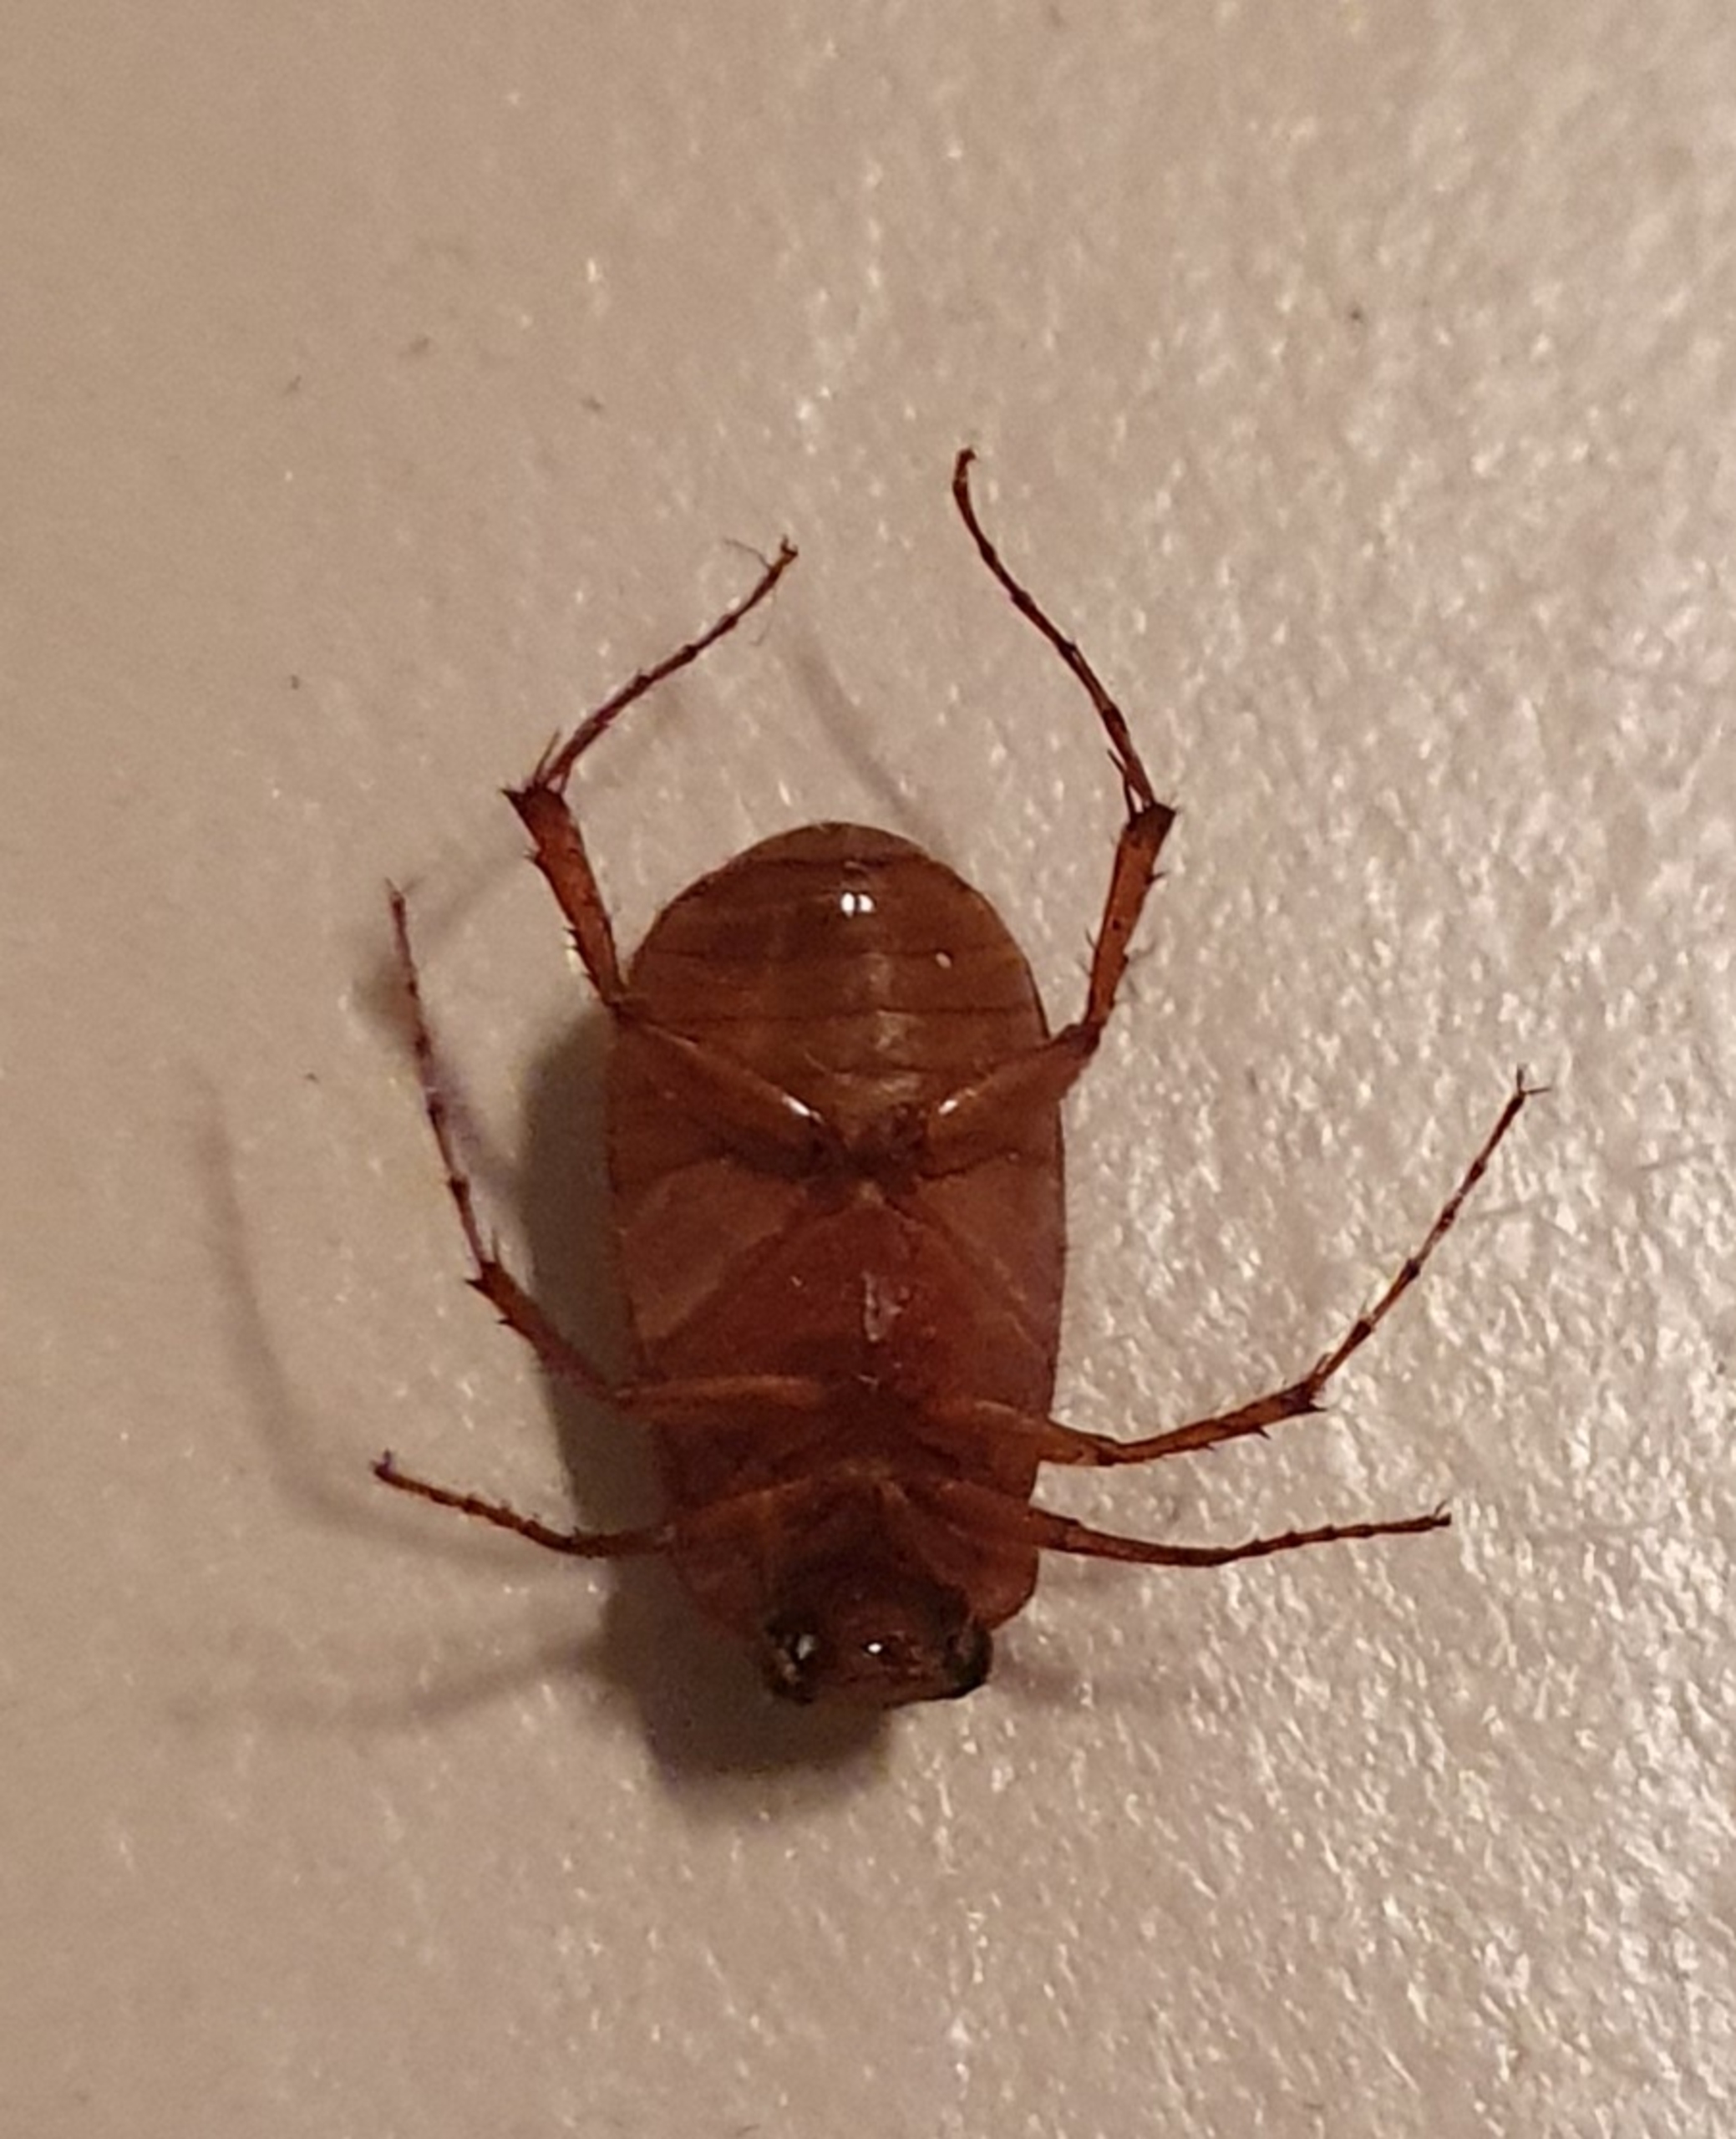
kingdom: Animalia
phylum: Arthropoda
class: Insecta
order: Coleoptera
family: Scarabaeidae
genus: Serica
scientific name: Serica brunnea
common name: Natoldenborre
